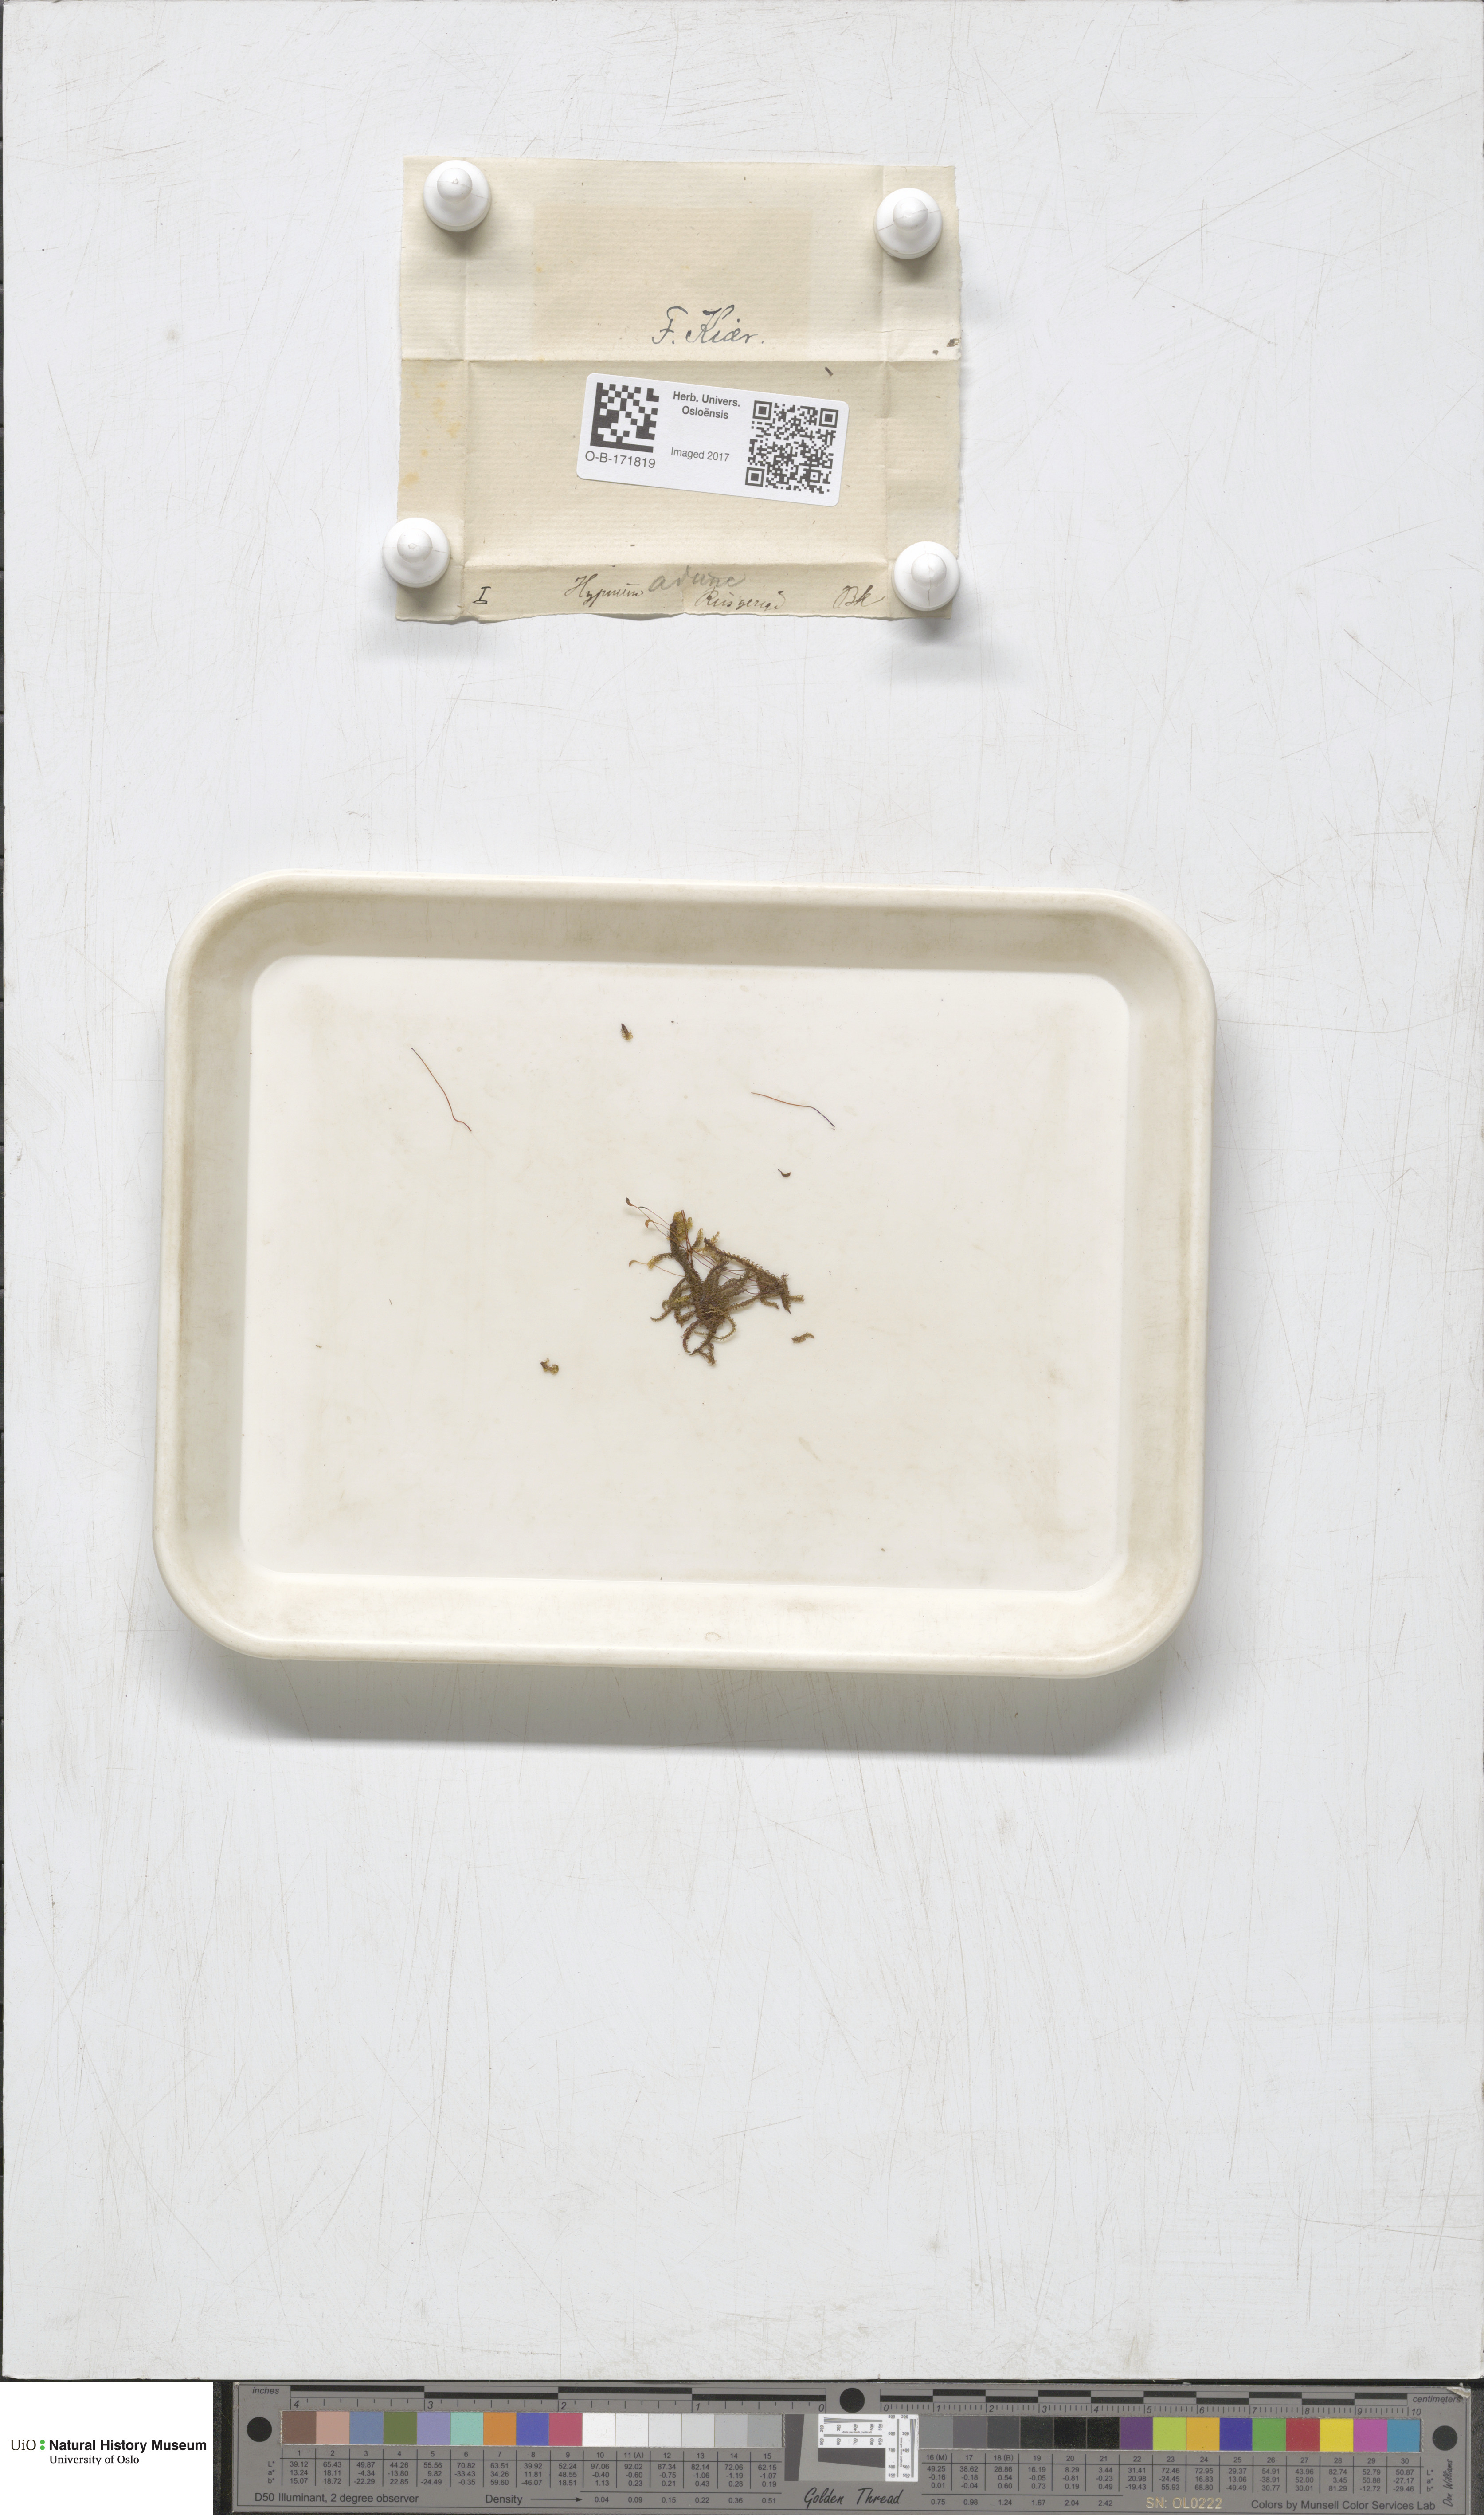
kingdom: Plantae
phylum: Bryophyta
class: Bryopsida
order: Hypnales
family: Amblystegiaceae
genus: Drepanocladus
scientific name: Drepanocladus aduncus
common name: Knieff's hook moss
